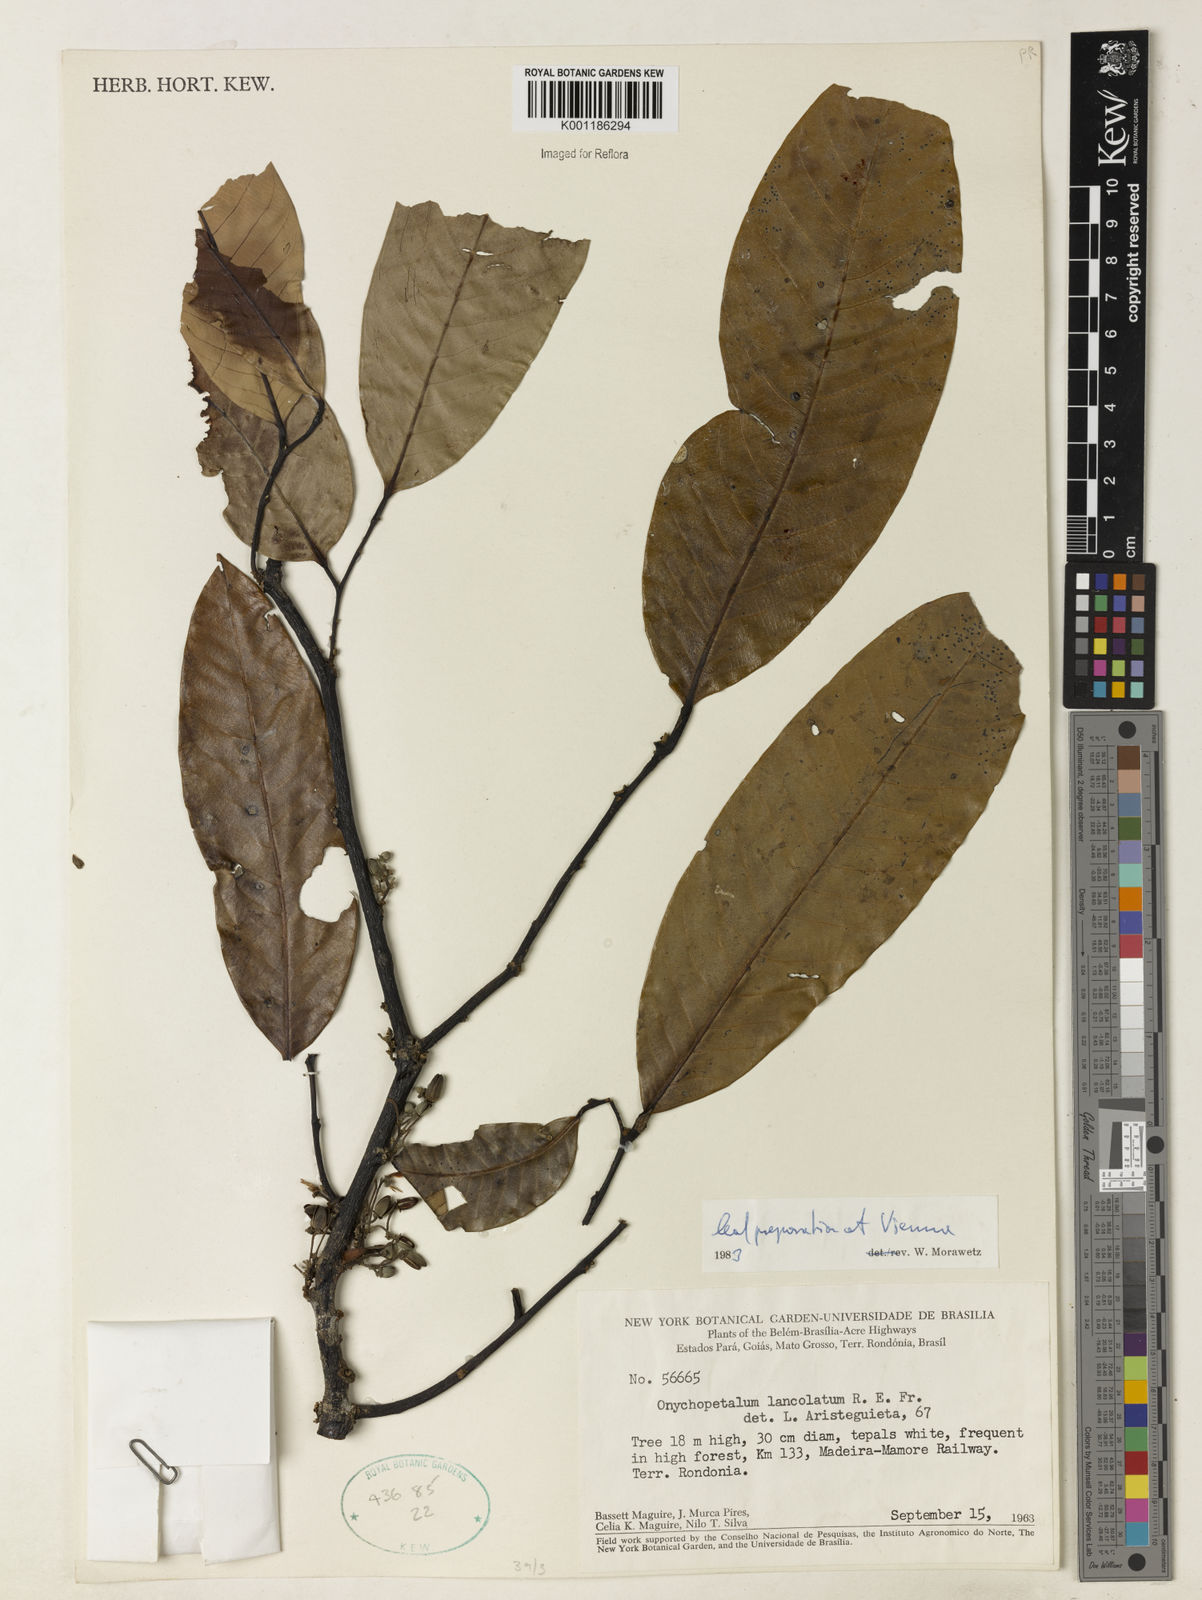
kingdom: Plantae
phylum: Tracheophyta
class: Magnoliopsida
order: Magnoliales
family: Annonaceae
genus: Onychopetalum
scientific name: Onychopetalum amazonicum
